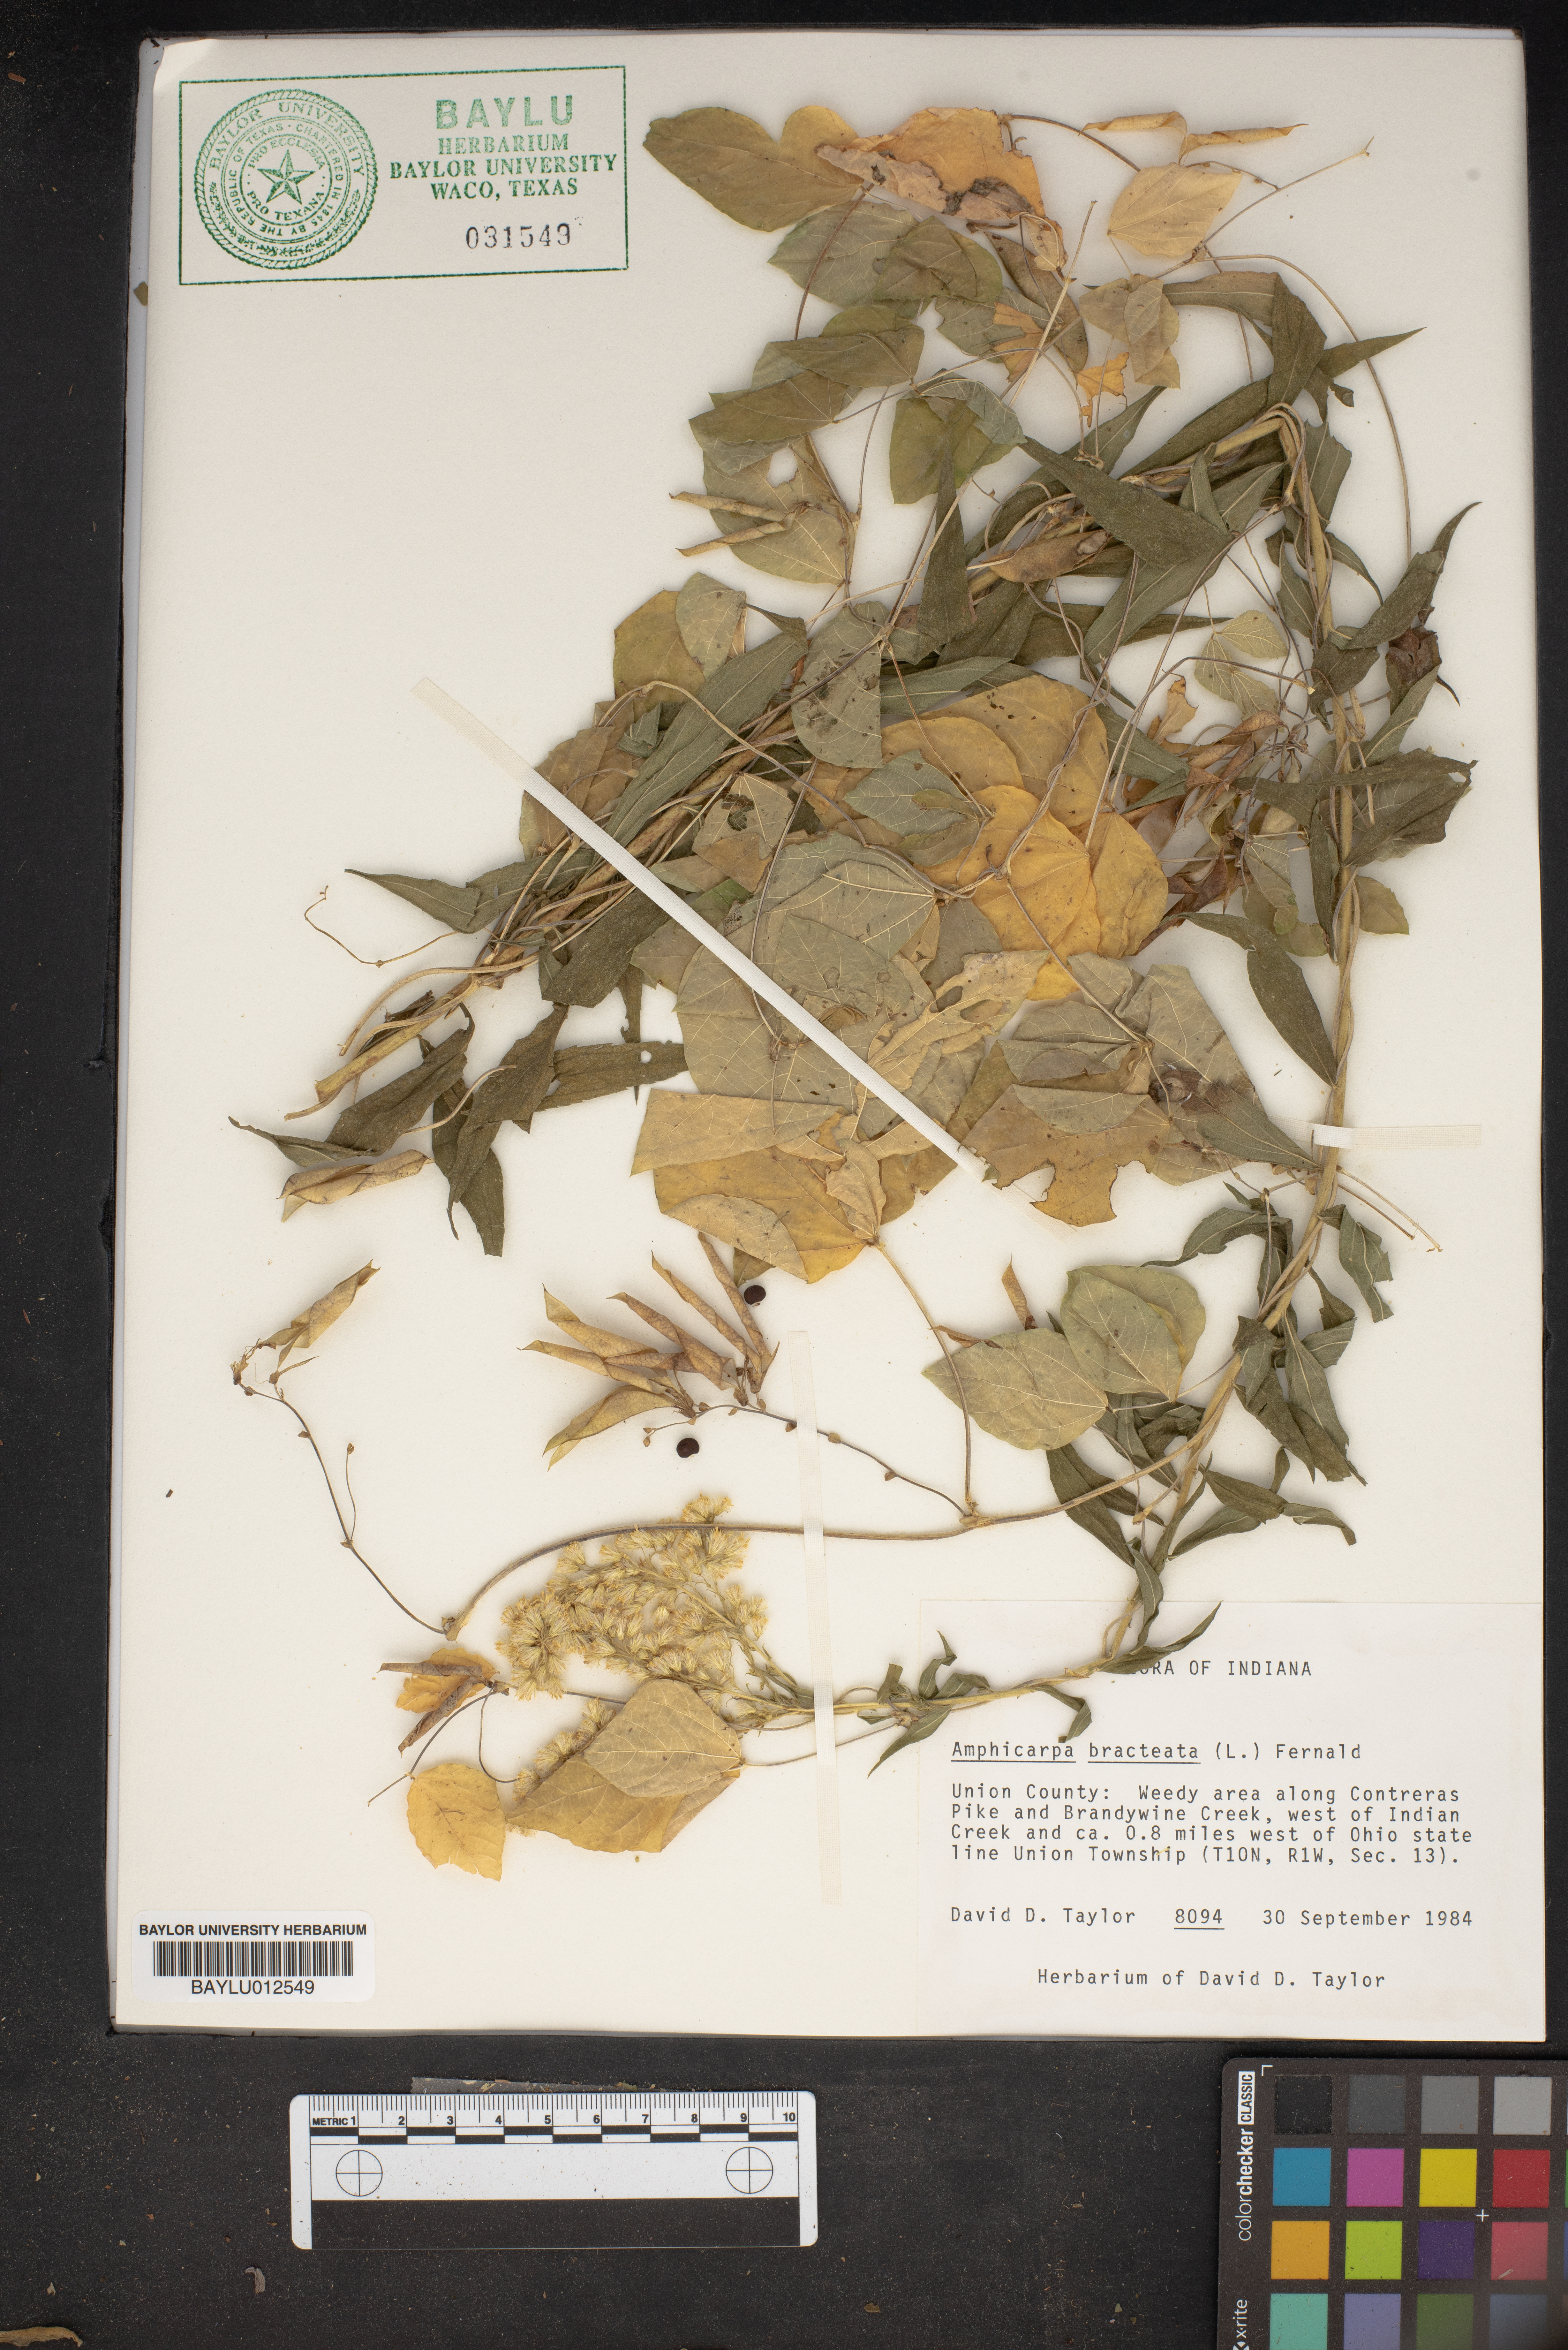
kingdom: Plantae
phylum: Tracheophyta
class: Magnoliopsida
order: Fabales
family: Fabaceae
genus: Amphicarpaea
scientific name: Amphicarpaea bracteata
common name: American hog peanut
